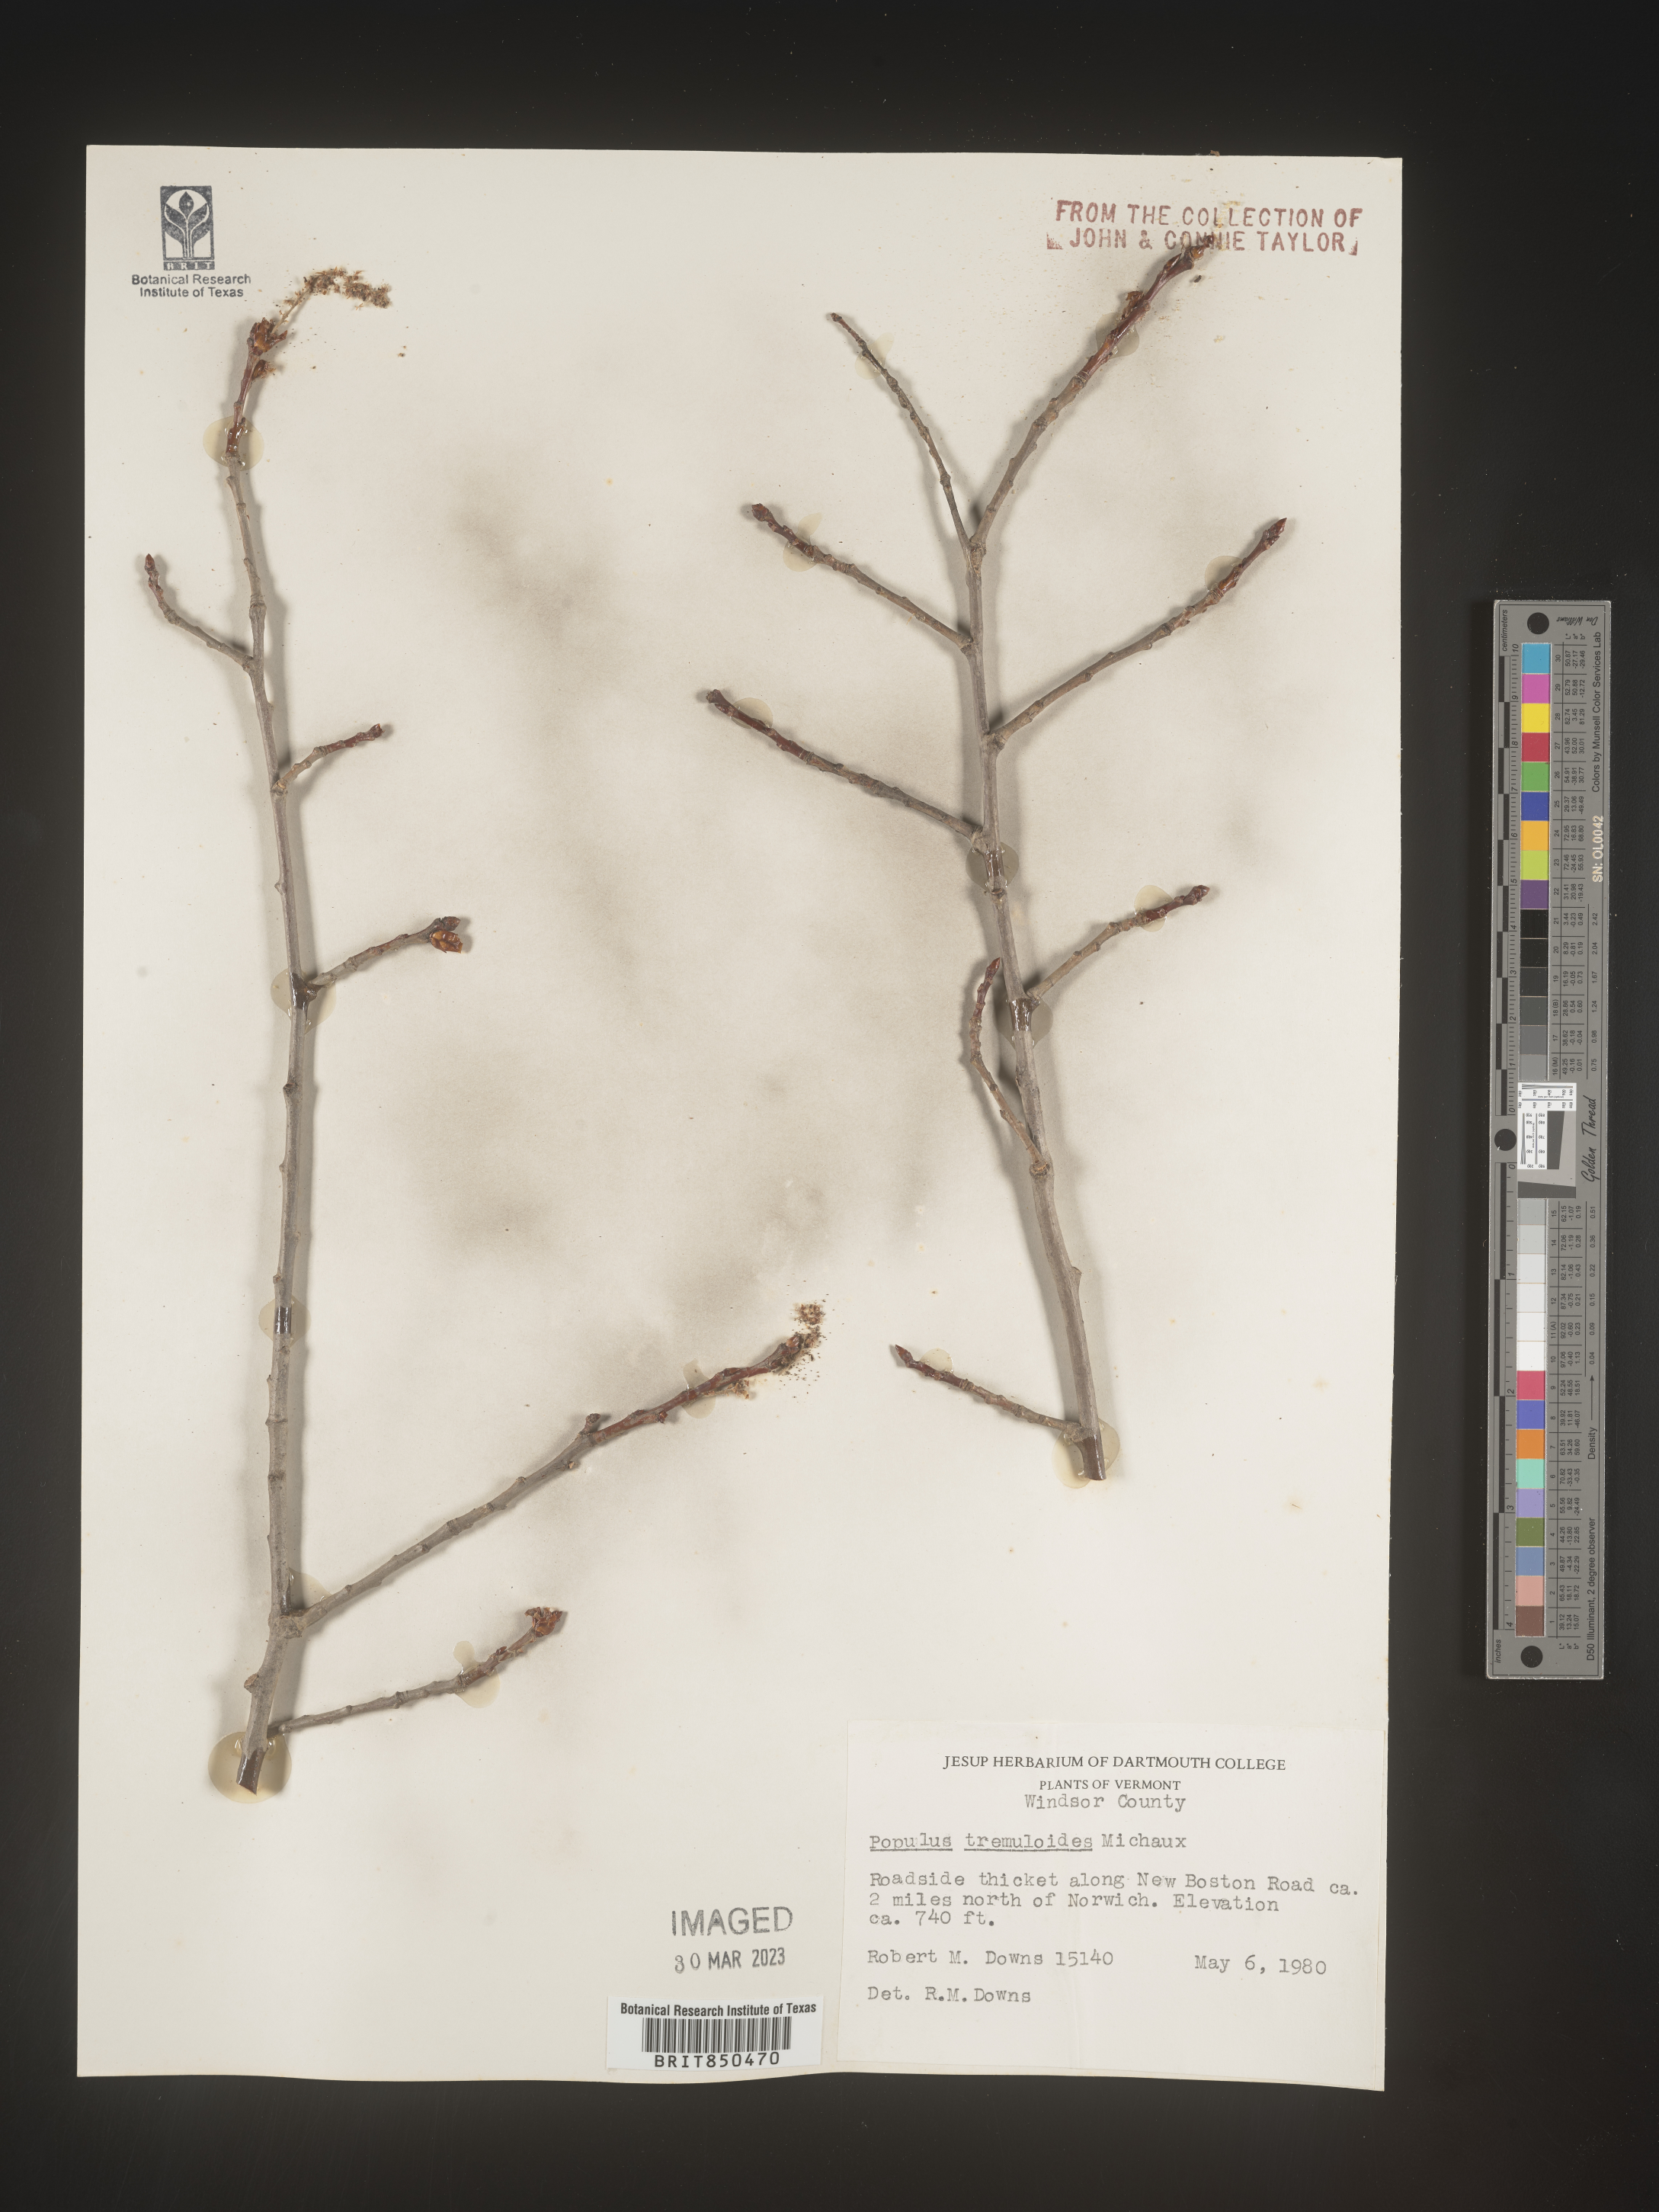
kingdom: Plantae
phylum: Tracheophyta
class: Magnoliopsida
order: Malpighiales
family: Salicaceae
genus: Populus
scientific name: Populus tremuloides
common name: Quaking aspen
